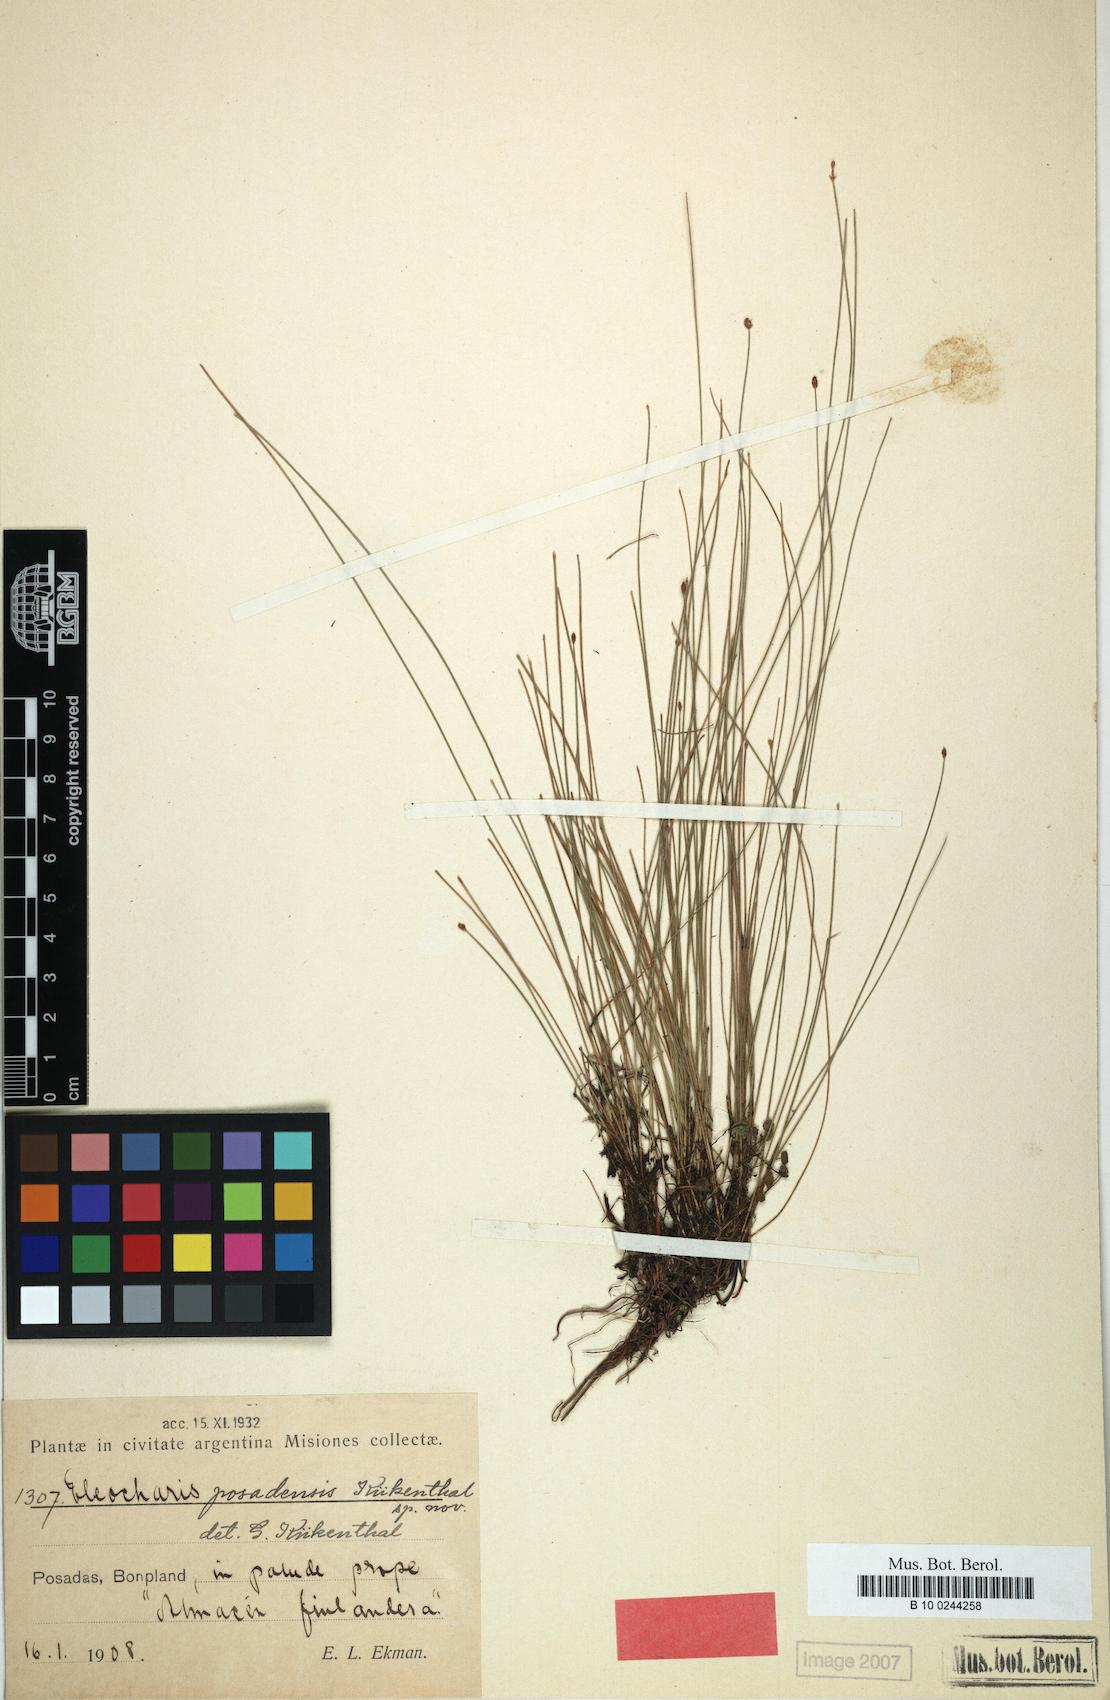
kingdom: Plantae
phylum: Tracheophyta
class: Liliopsida
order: Poales
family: Cyperaceae
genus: Eleocharis
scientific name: Eleocharis contracta
